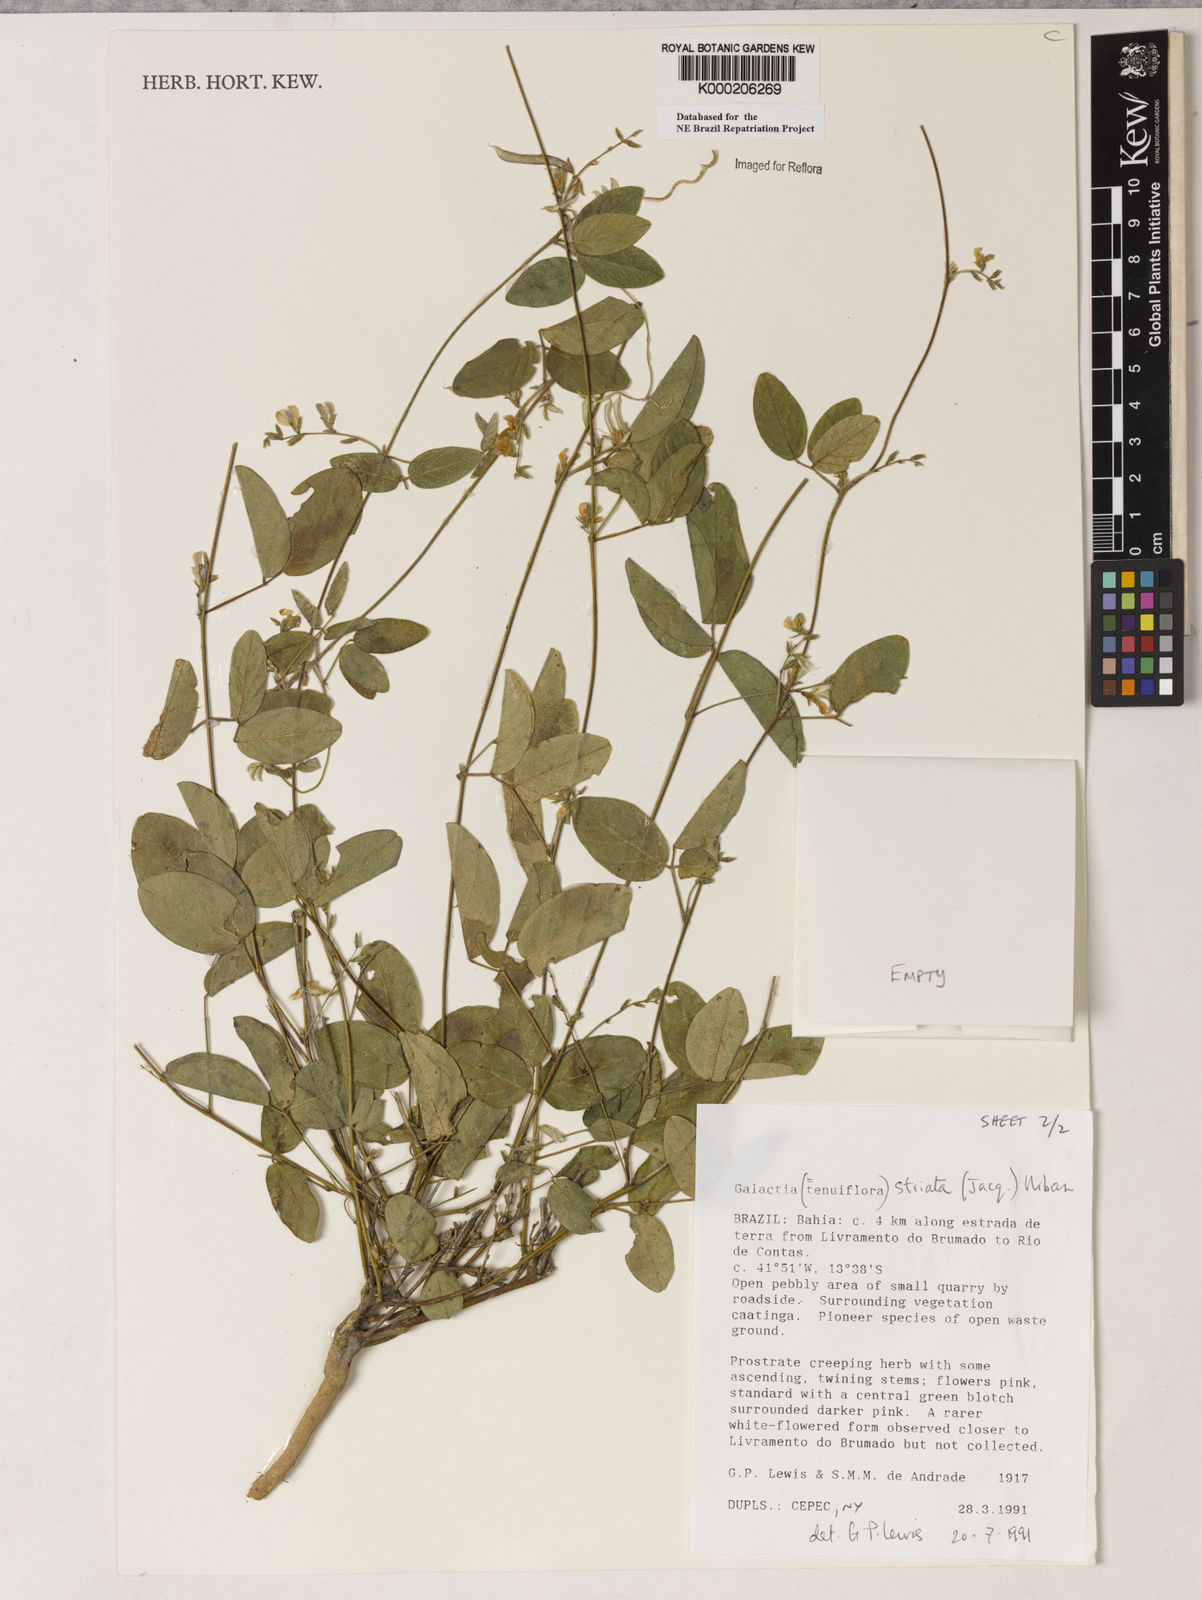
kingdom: Plantae
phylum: Tracheophyta
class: Magnoliopsida
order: Fabales
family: Fabaceae
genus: Galactia
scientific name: Galactia striata
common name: Florida hammock milkpea
